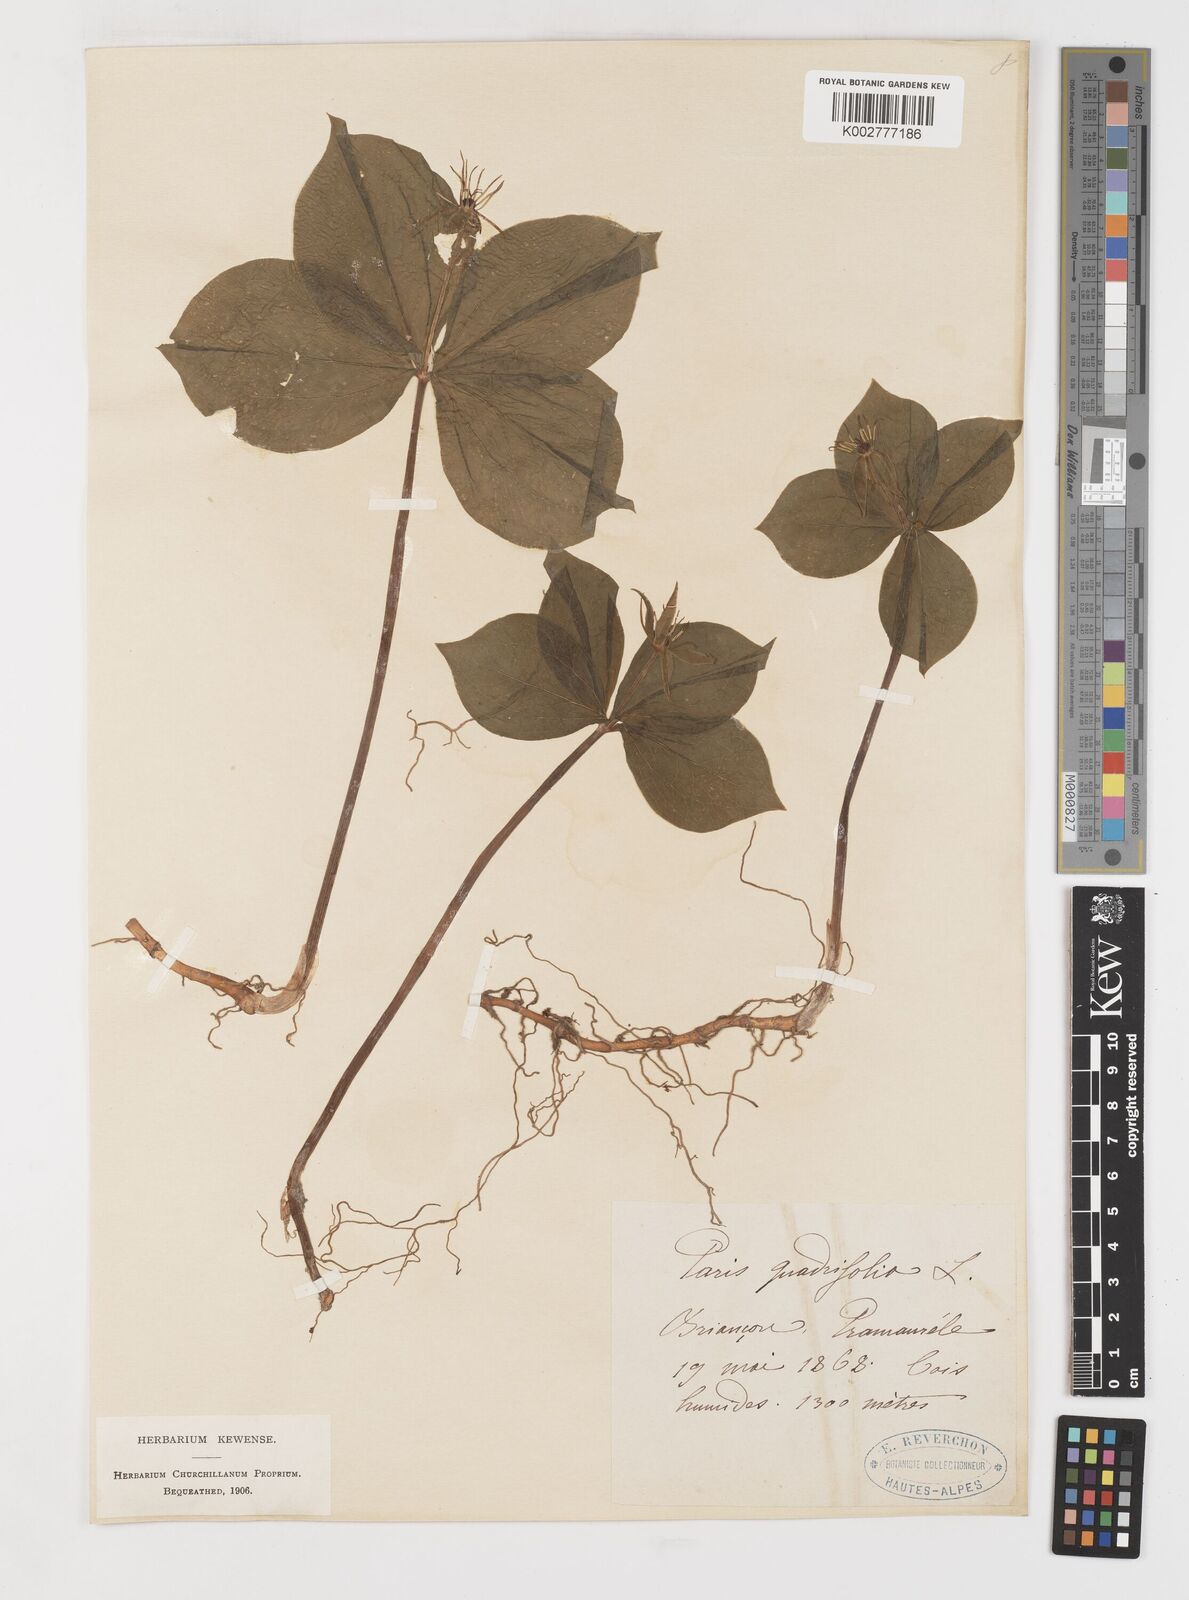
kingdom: Plantae
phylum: Tracheophyta
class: Liliopsida
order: Liliales
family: Melanthiaceae
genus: Paris
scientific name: Paris quadrifolia
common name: Herb-paris
